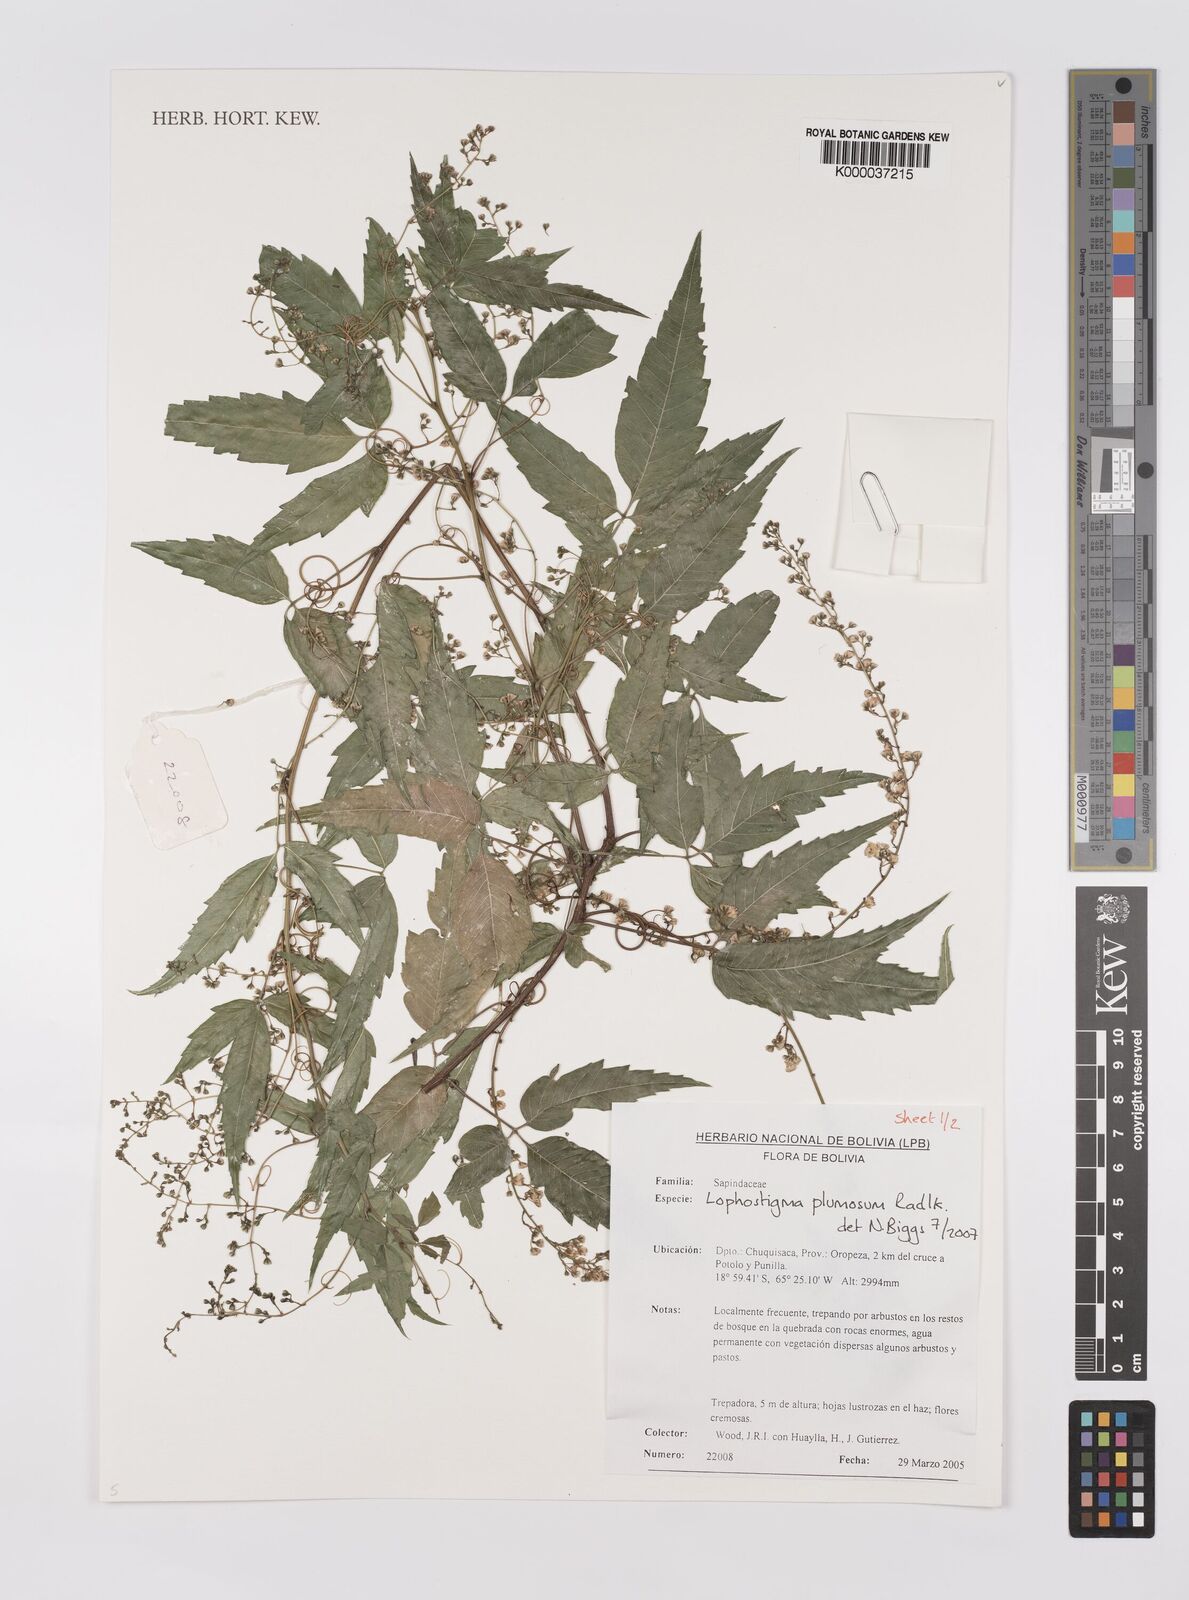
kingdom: Plantae
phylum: Tracheophyta
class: Magnoliopsida
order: Sapindales
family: Sapindaceae
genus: Lophostigma
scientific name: Lophostigma plumosum
